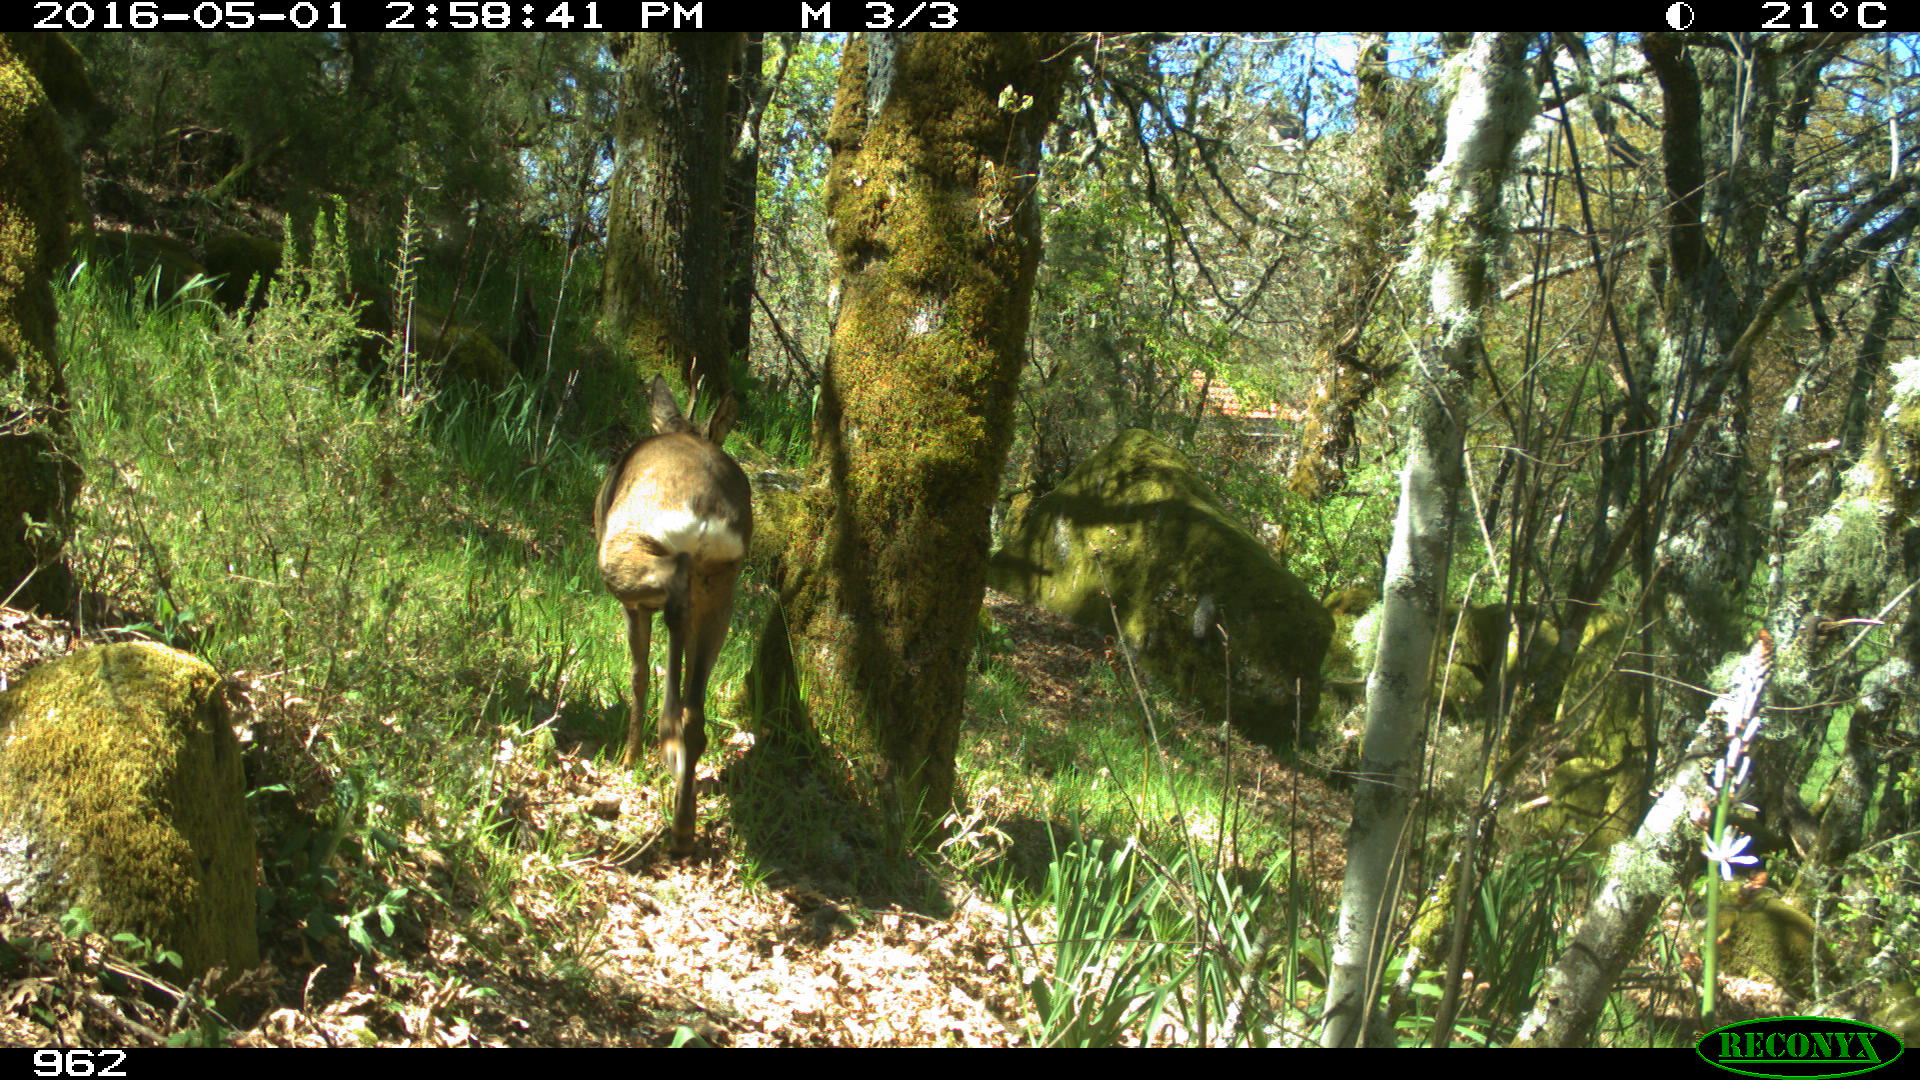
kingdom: Animalia
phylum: Chordata
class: Mammalia
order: Artiodactyla
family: Cervidae
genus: Capreolus
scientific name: Capreolus capreolus
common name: Western roe deer
